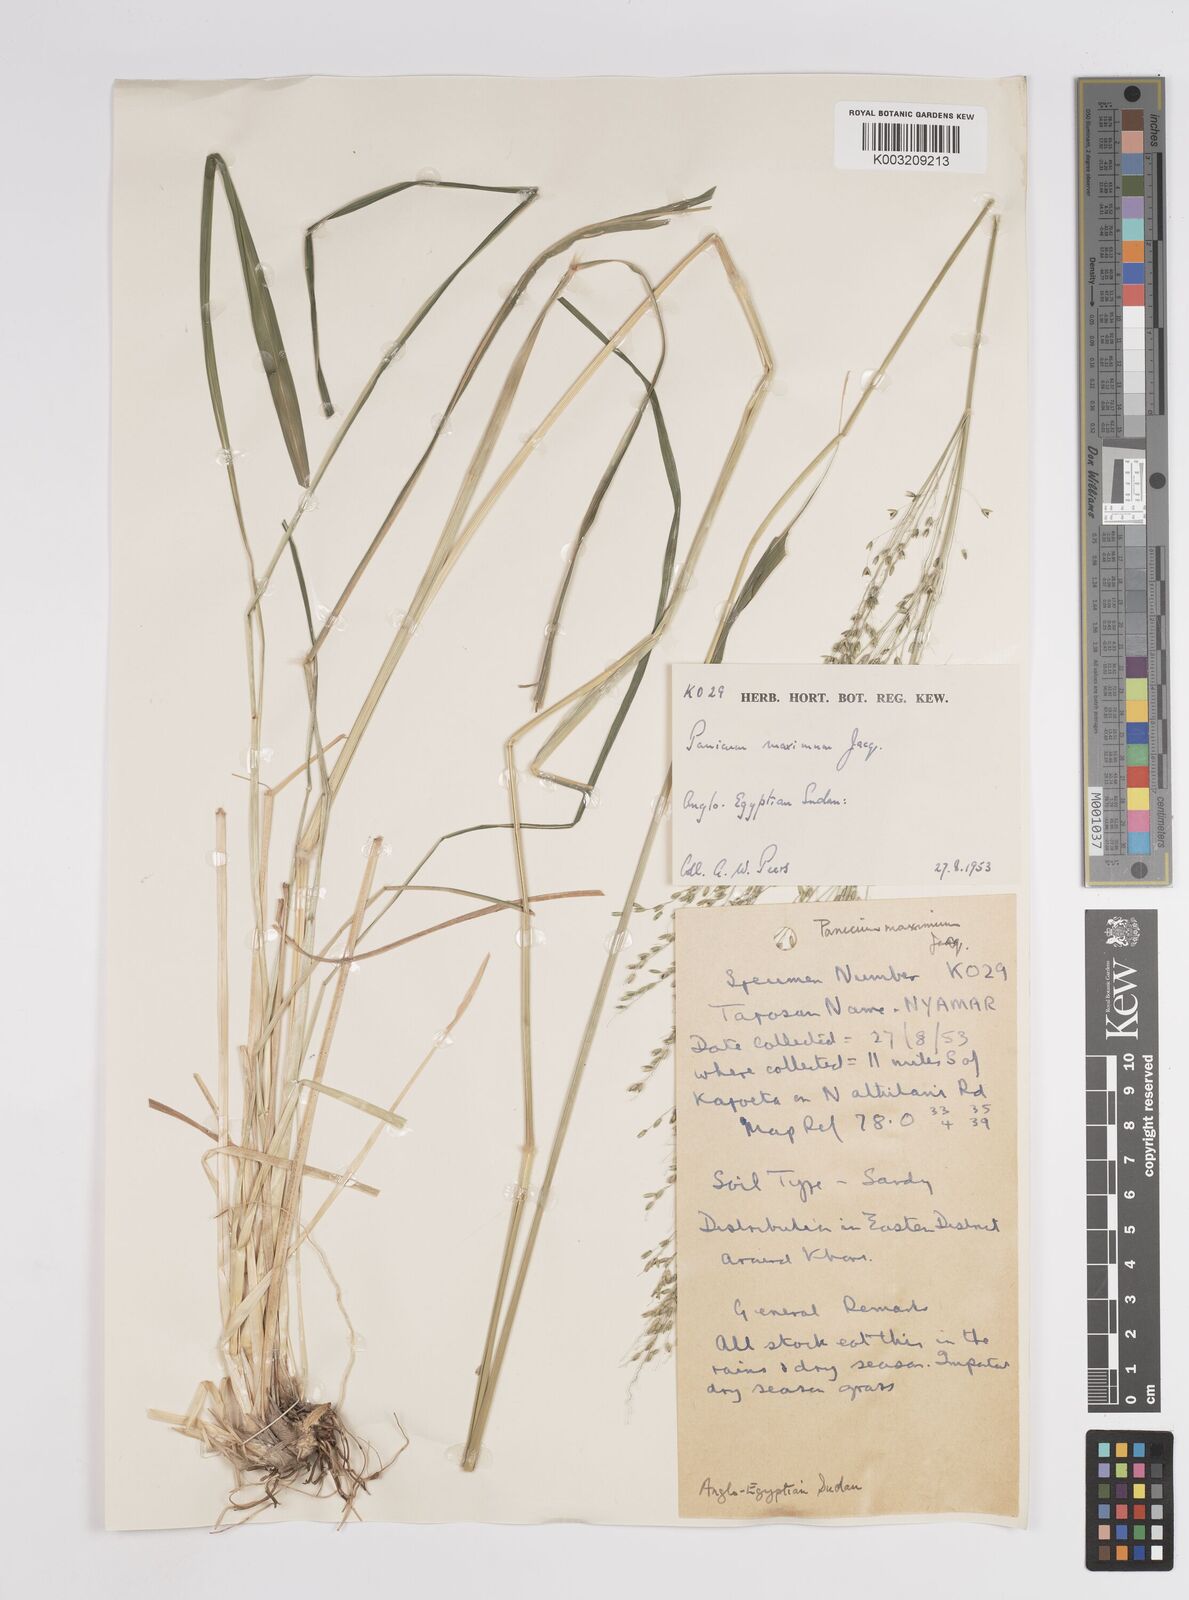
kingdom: Plantae
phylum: Tracheophyta
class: Liliopsida
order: Poales
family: Poaceae
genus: Megathyrsus
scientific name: Megathyrsus maximus
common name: Guineagrass
